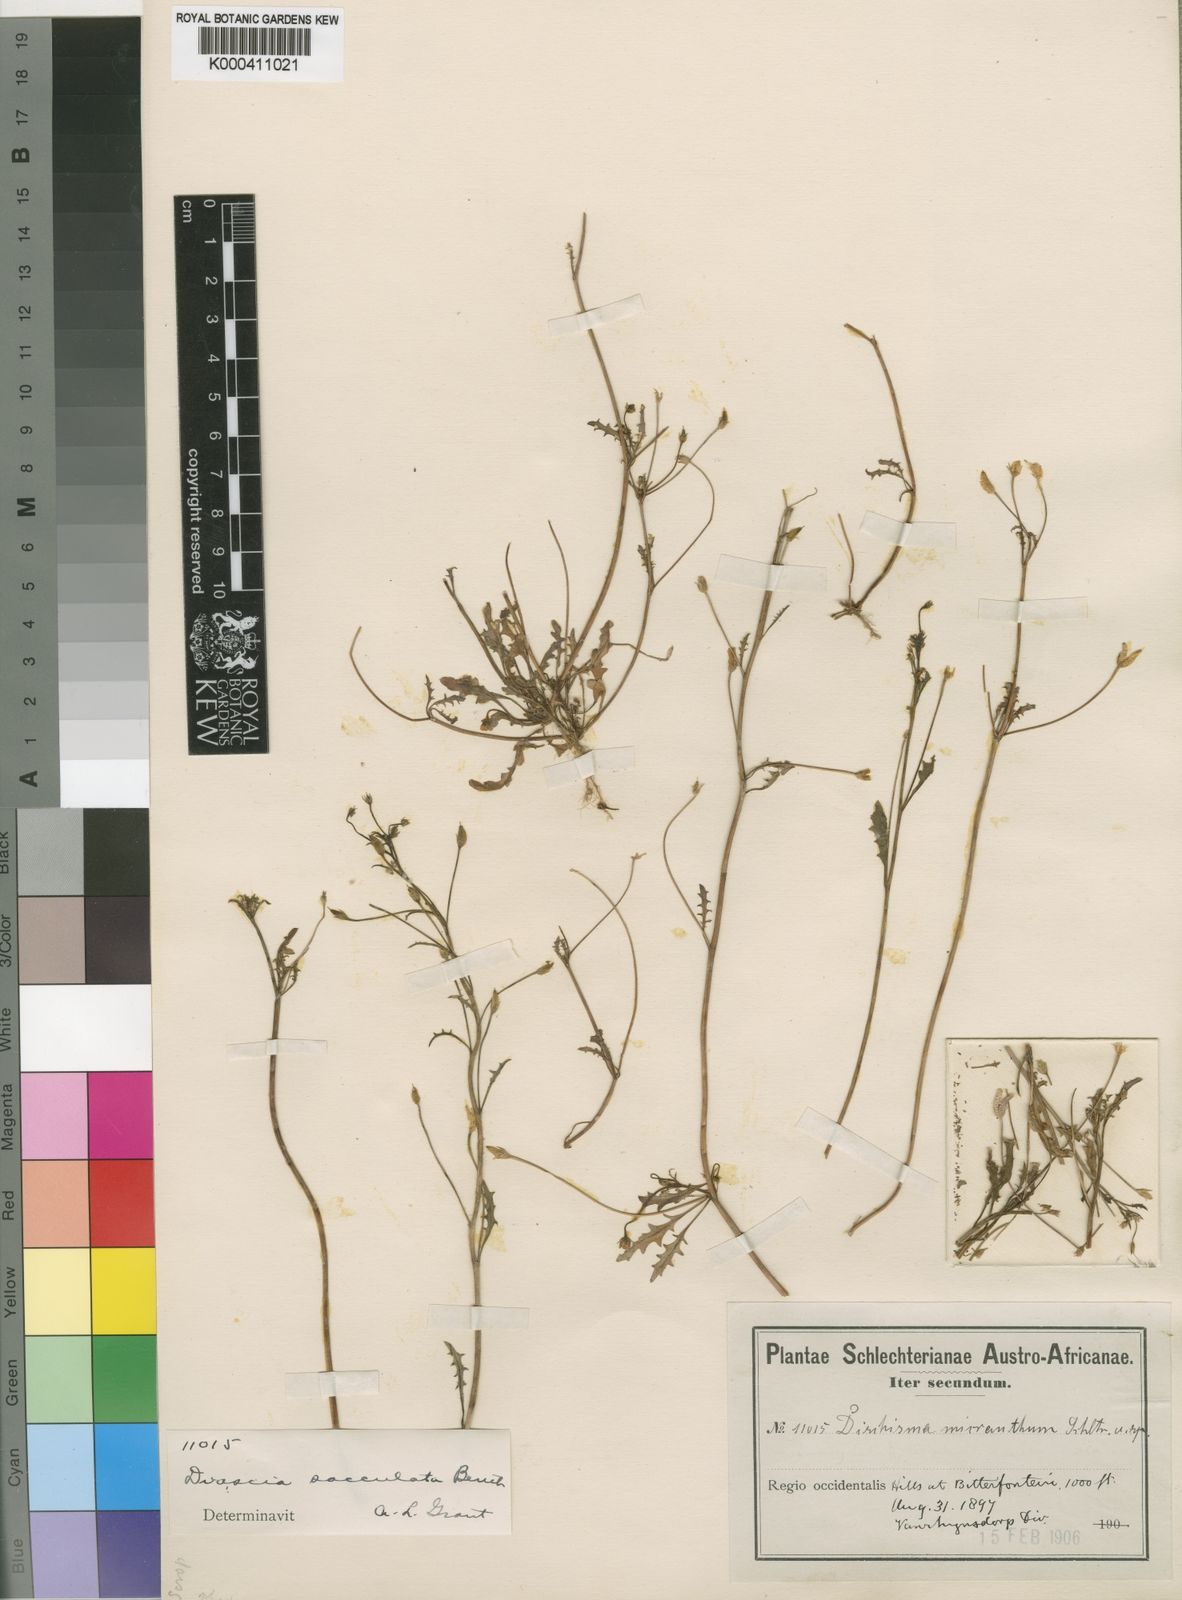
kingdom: Plantae
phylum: Tracheophyta
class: Magnoliopsida
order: Lamiales
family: Scrophulariaceae
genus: Diascia
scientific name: Diascia sacculata
